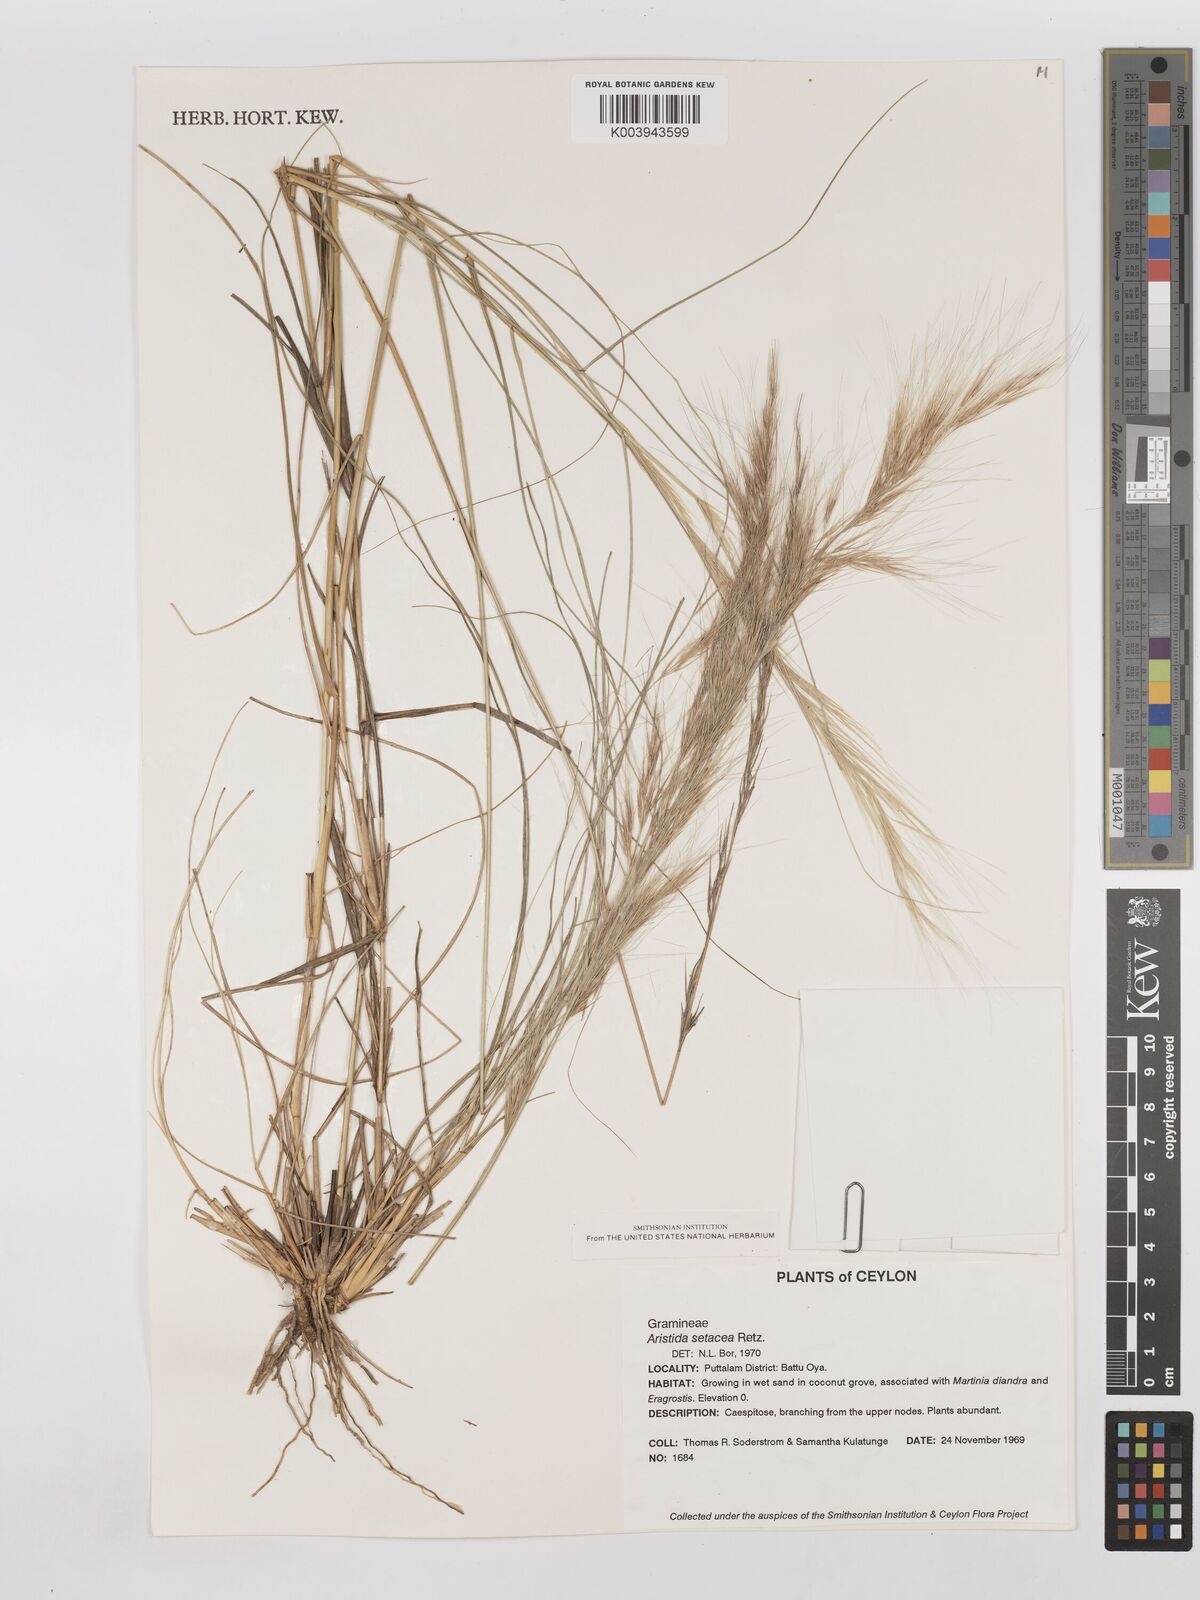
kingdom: Plantae
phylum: Tracheophyta
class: Liliopsida
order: Poales
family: Poaceae
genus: Aristida
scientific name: Aristida setacea
